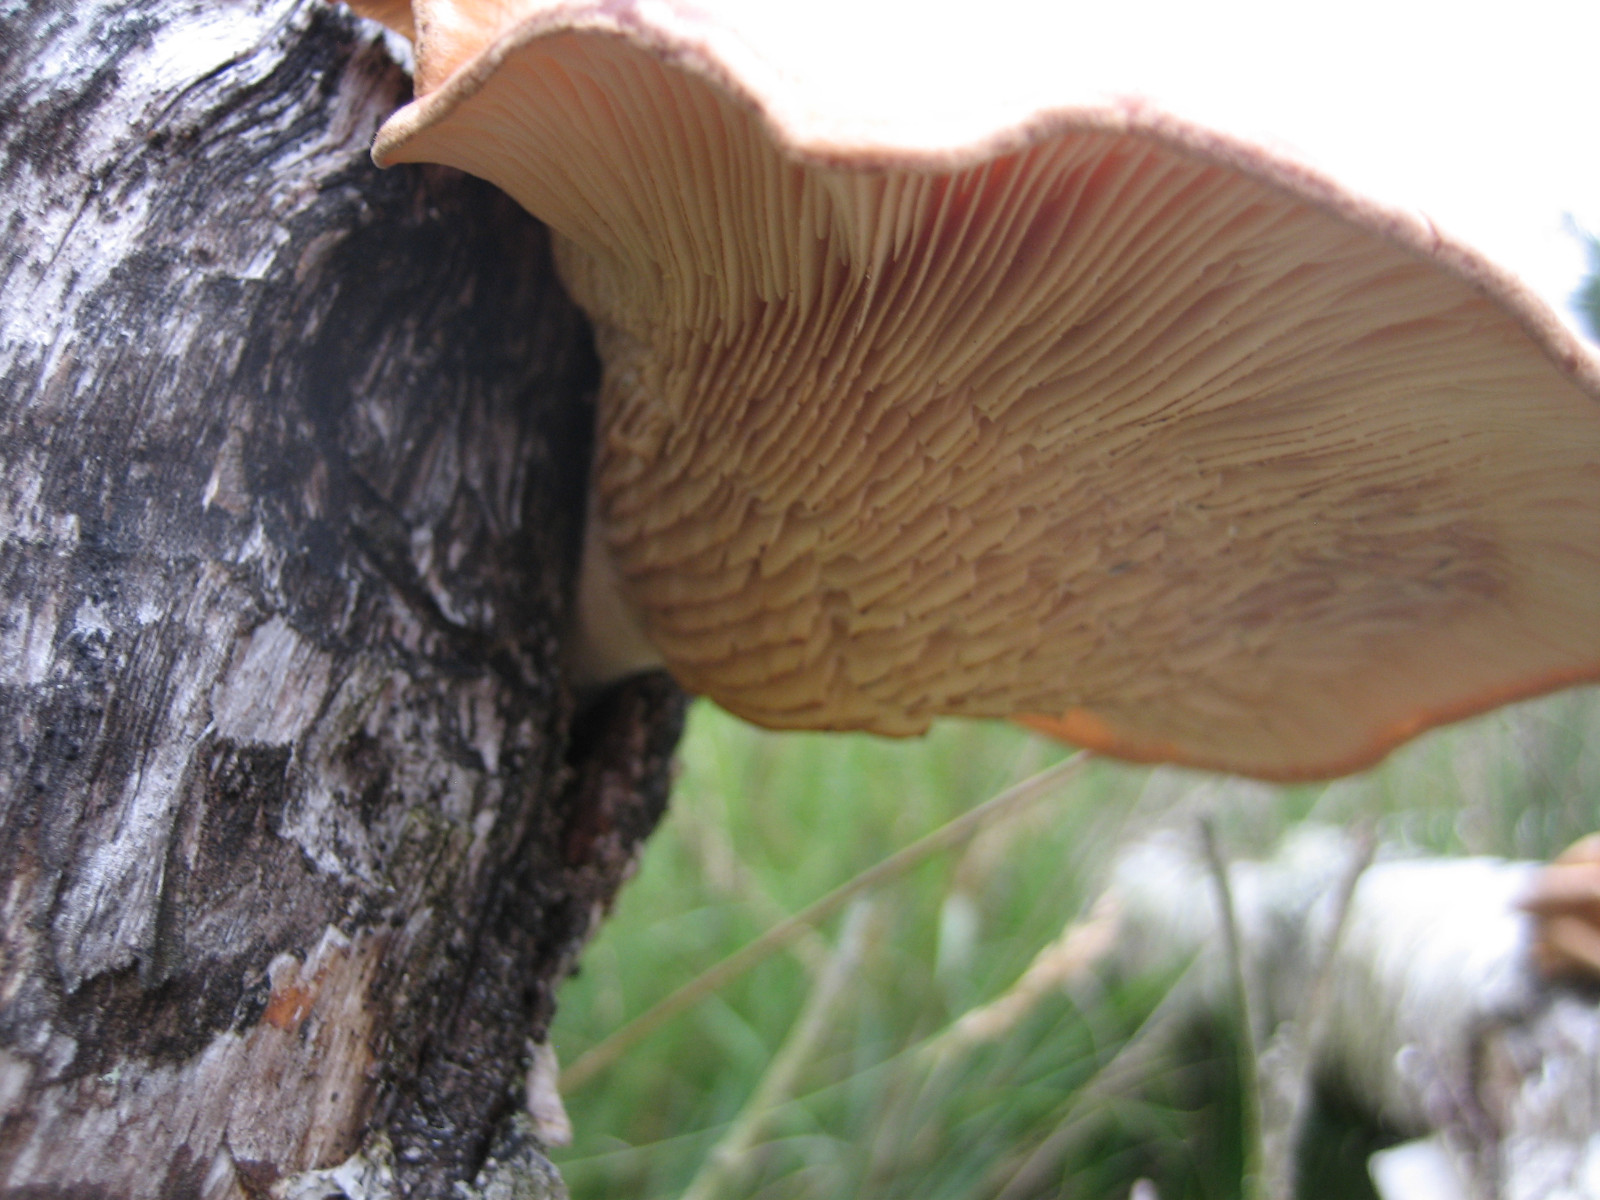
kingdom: Fungi
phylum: Basidiomycota
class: Agaricomycetes
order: Polyporales
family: Panaceae
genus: Panus
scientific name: Panus conchatus
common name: filtstokket læderhat
